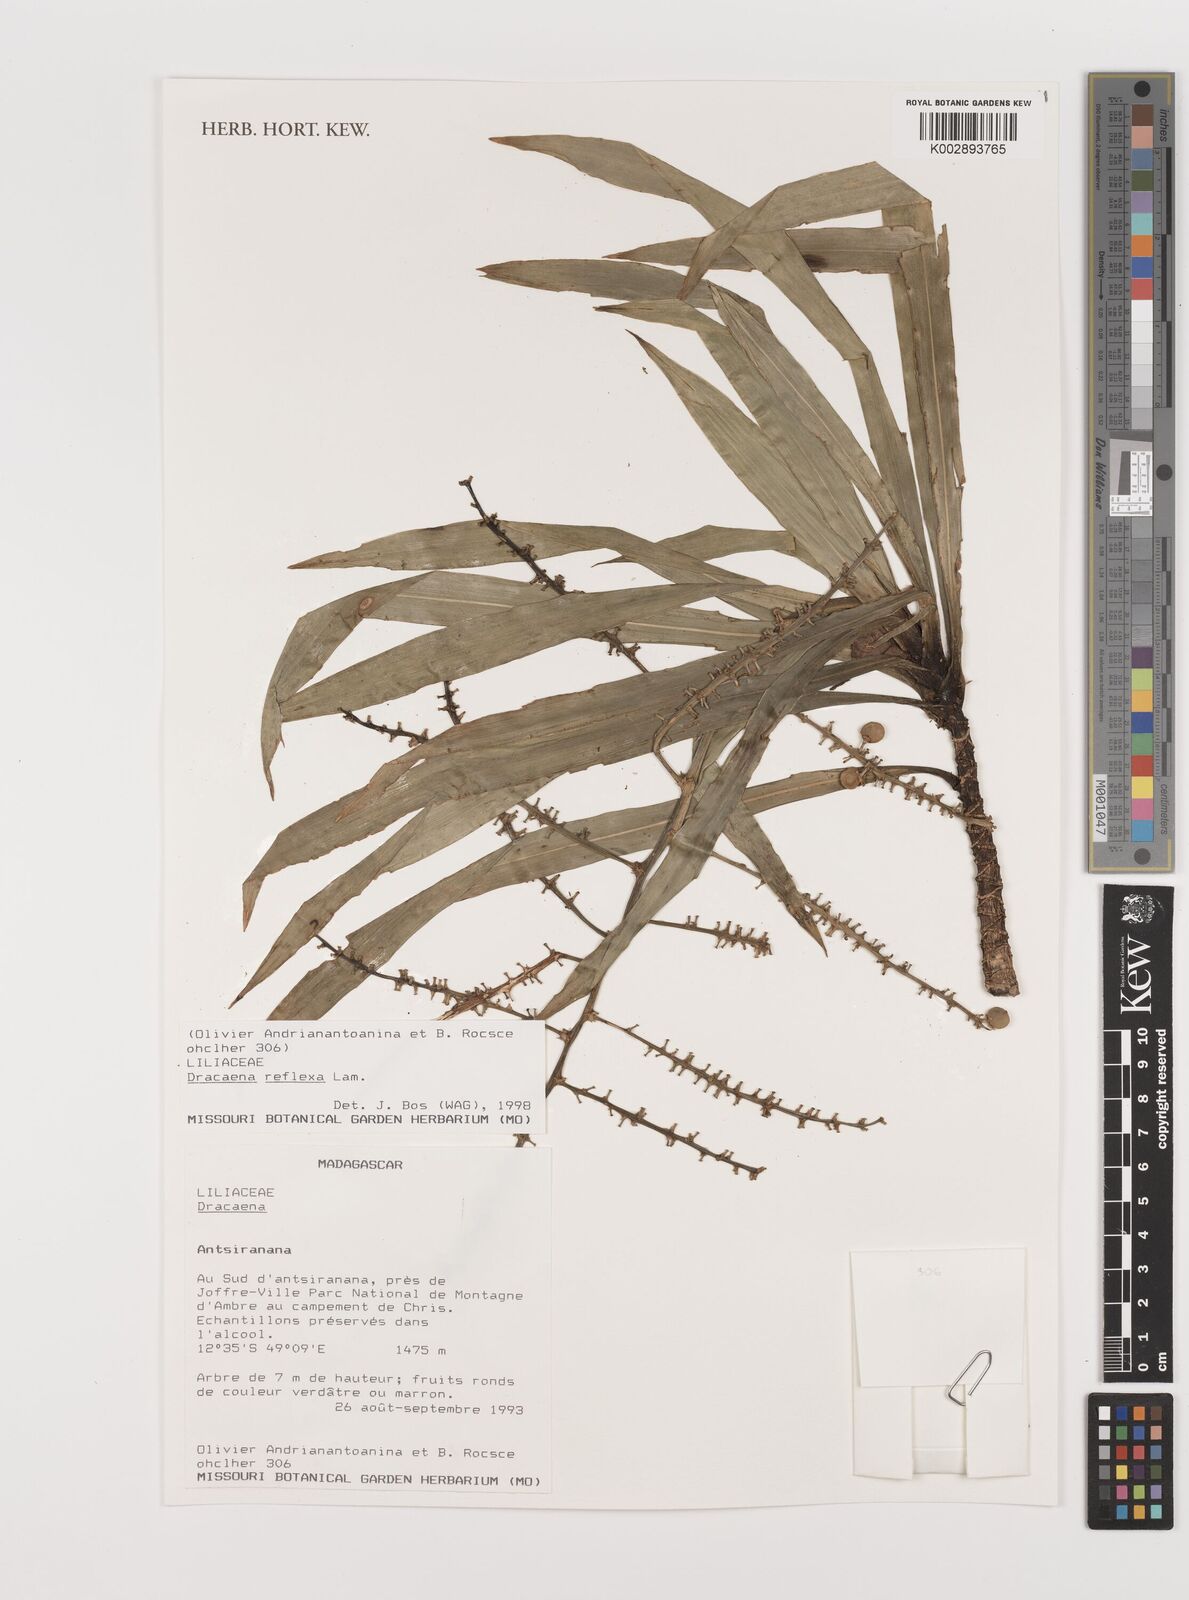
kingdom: Plantae
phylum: Tracheophyta
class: Liliopsida
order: Asparagales
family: Asparagaceae
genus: Dracaena
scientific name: Dracaena reflexa
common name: Song-of-india
